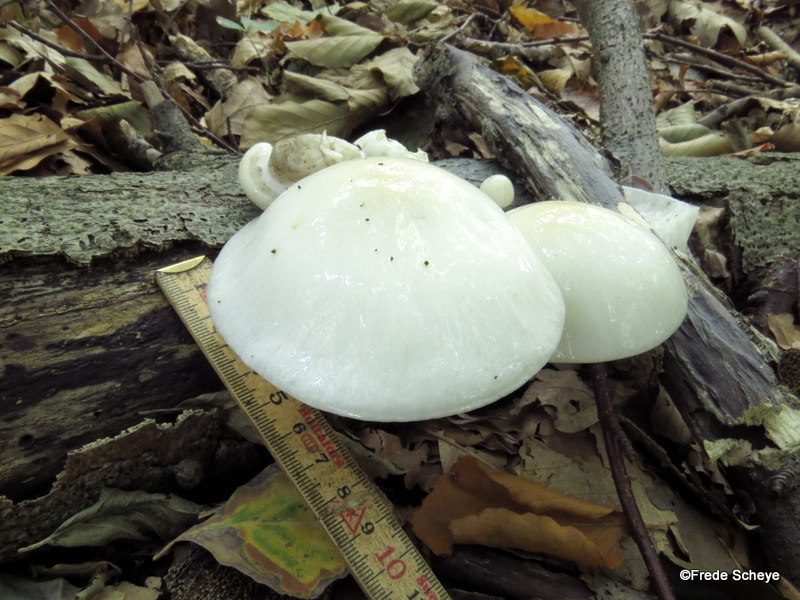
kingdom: Fungi
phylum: Basidiomycota
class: Agaricomycetes
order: Agaricales
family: Physalacriaceae
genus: Mucidula
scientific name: Mucidula mucida
